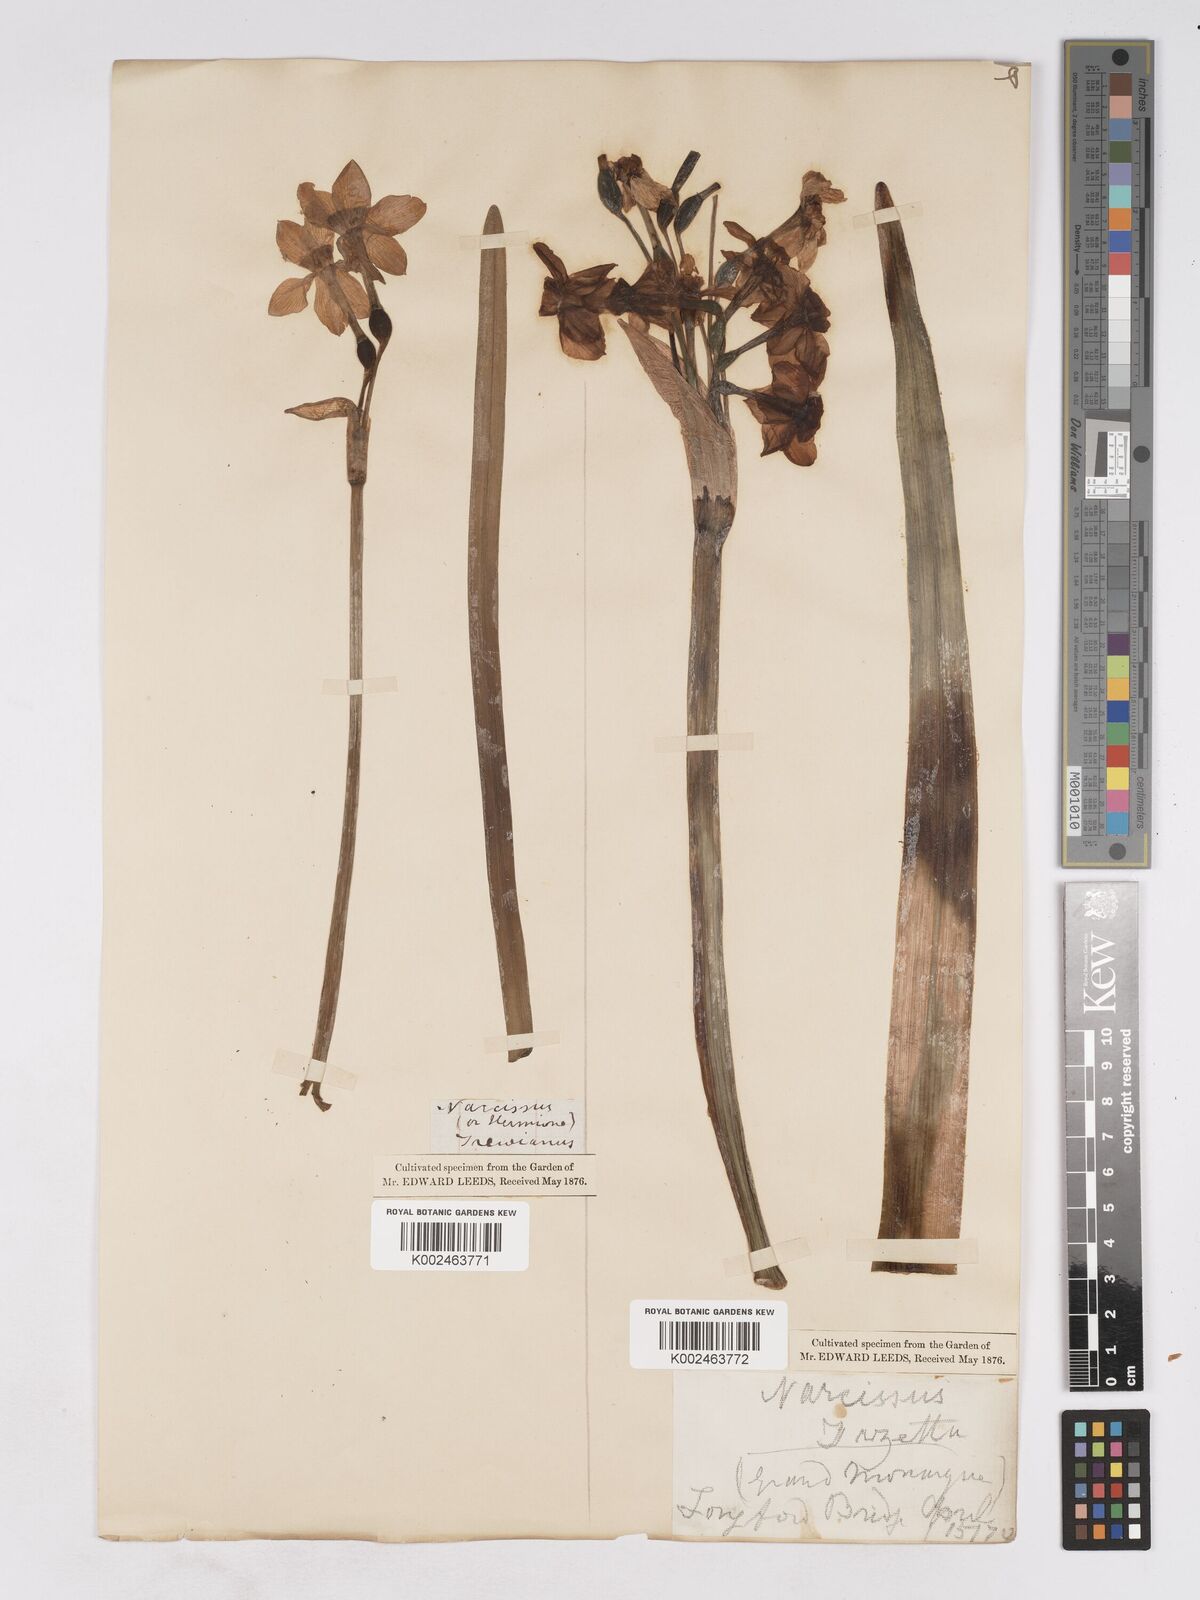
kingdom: Plantae
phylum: Tracheophyta
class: Liliopsida
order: Asparagales
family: Amaryllidaceae
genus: Narcissus
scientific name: Narcissus
